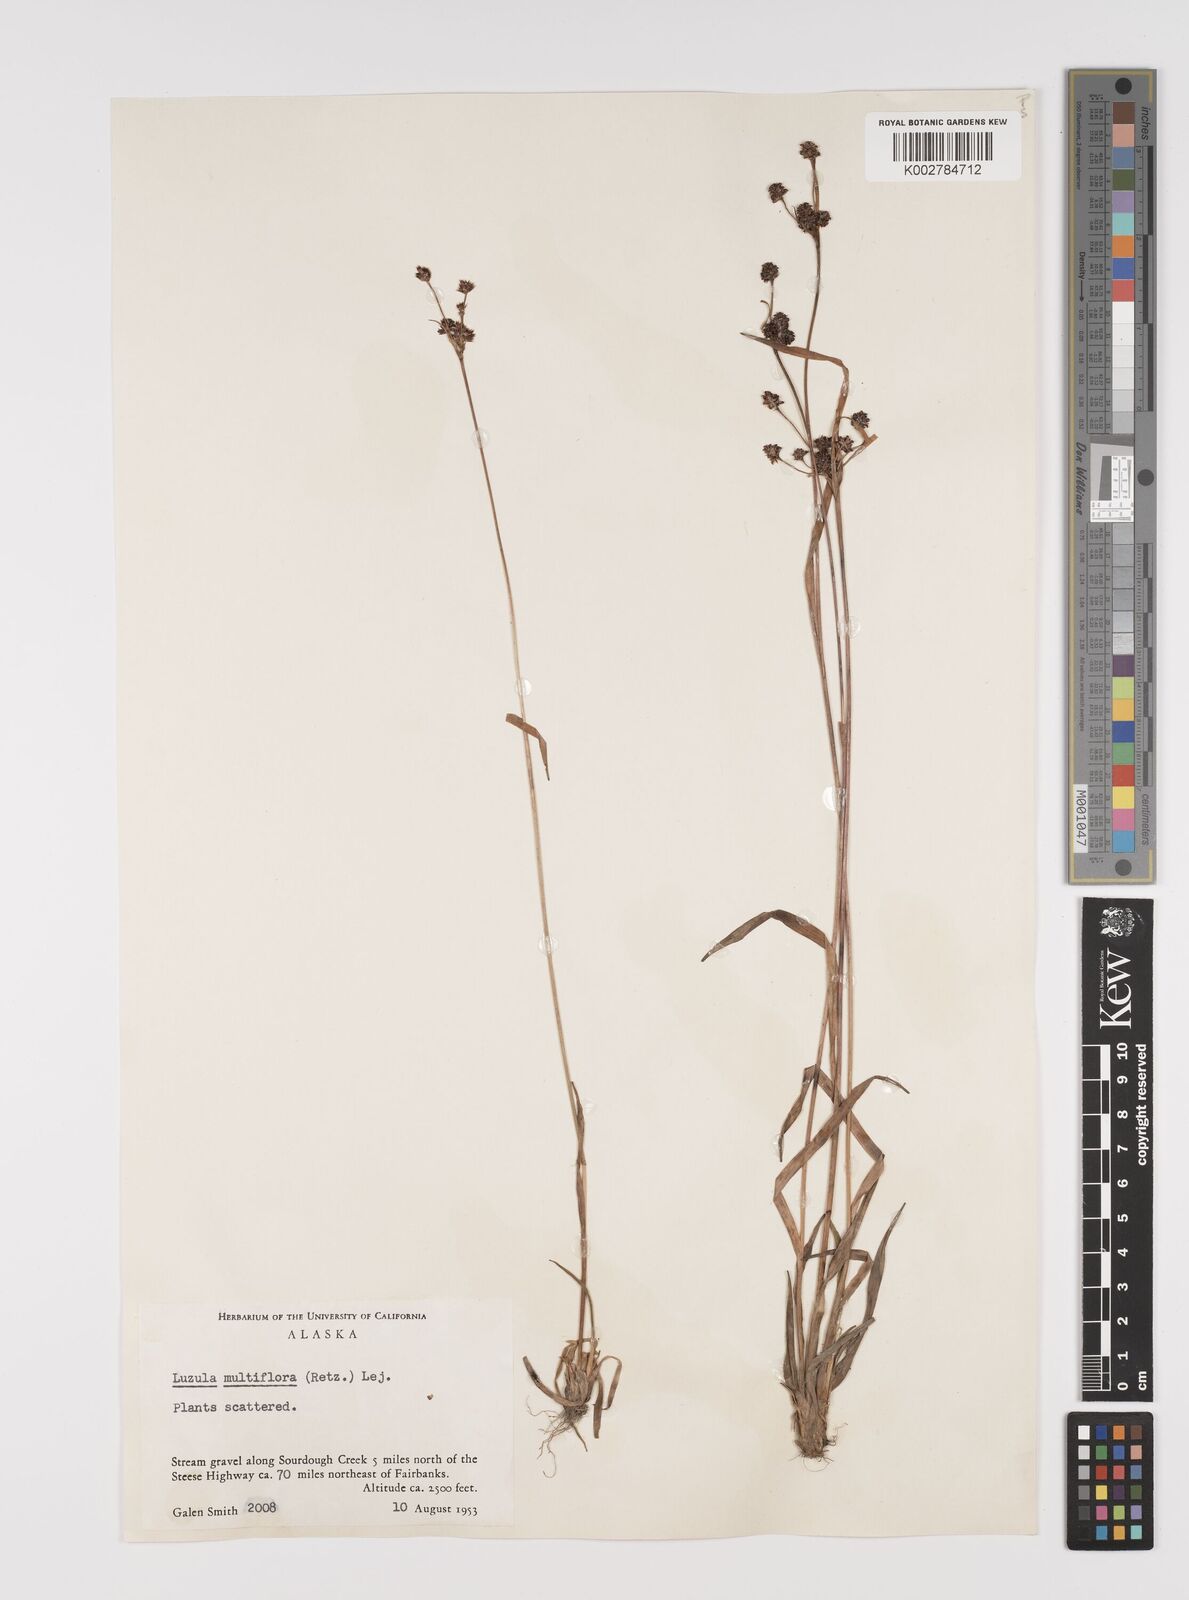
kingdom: Plantae
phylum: Tracheophyta
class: Liliopsida
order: Poales
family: Juncaceae
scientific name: Juncaceae
